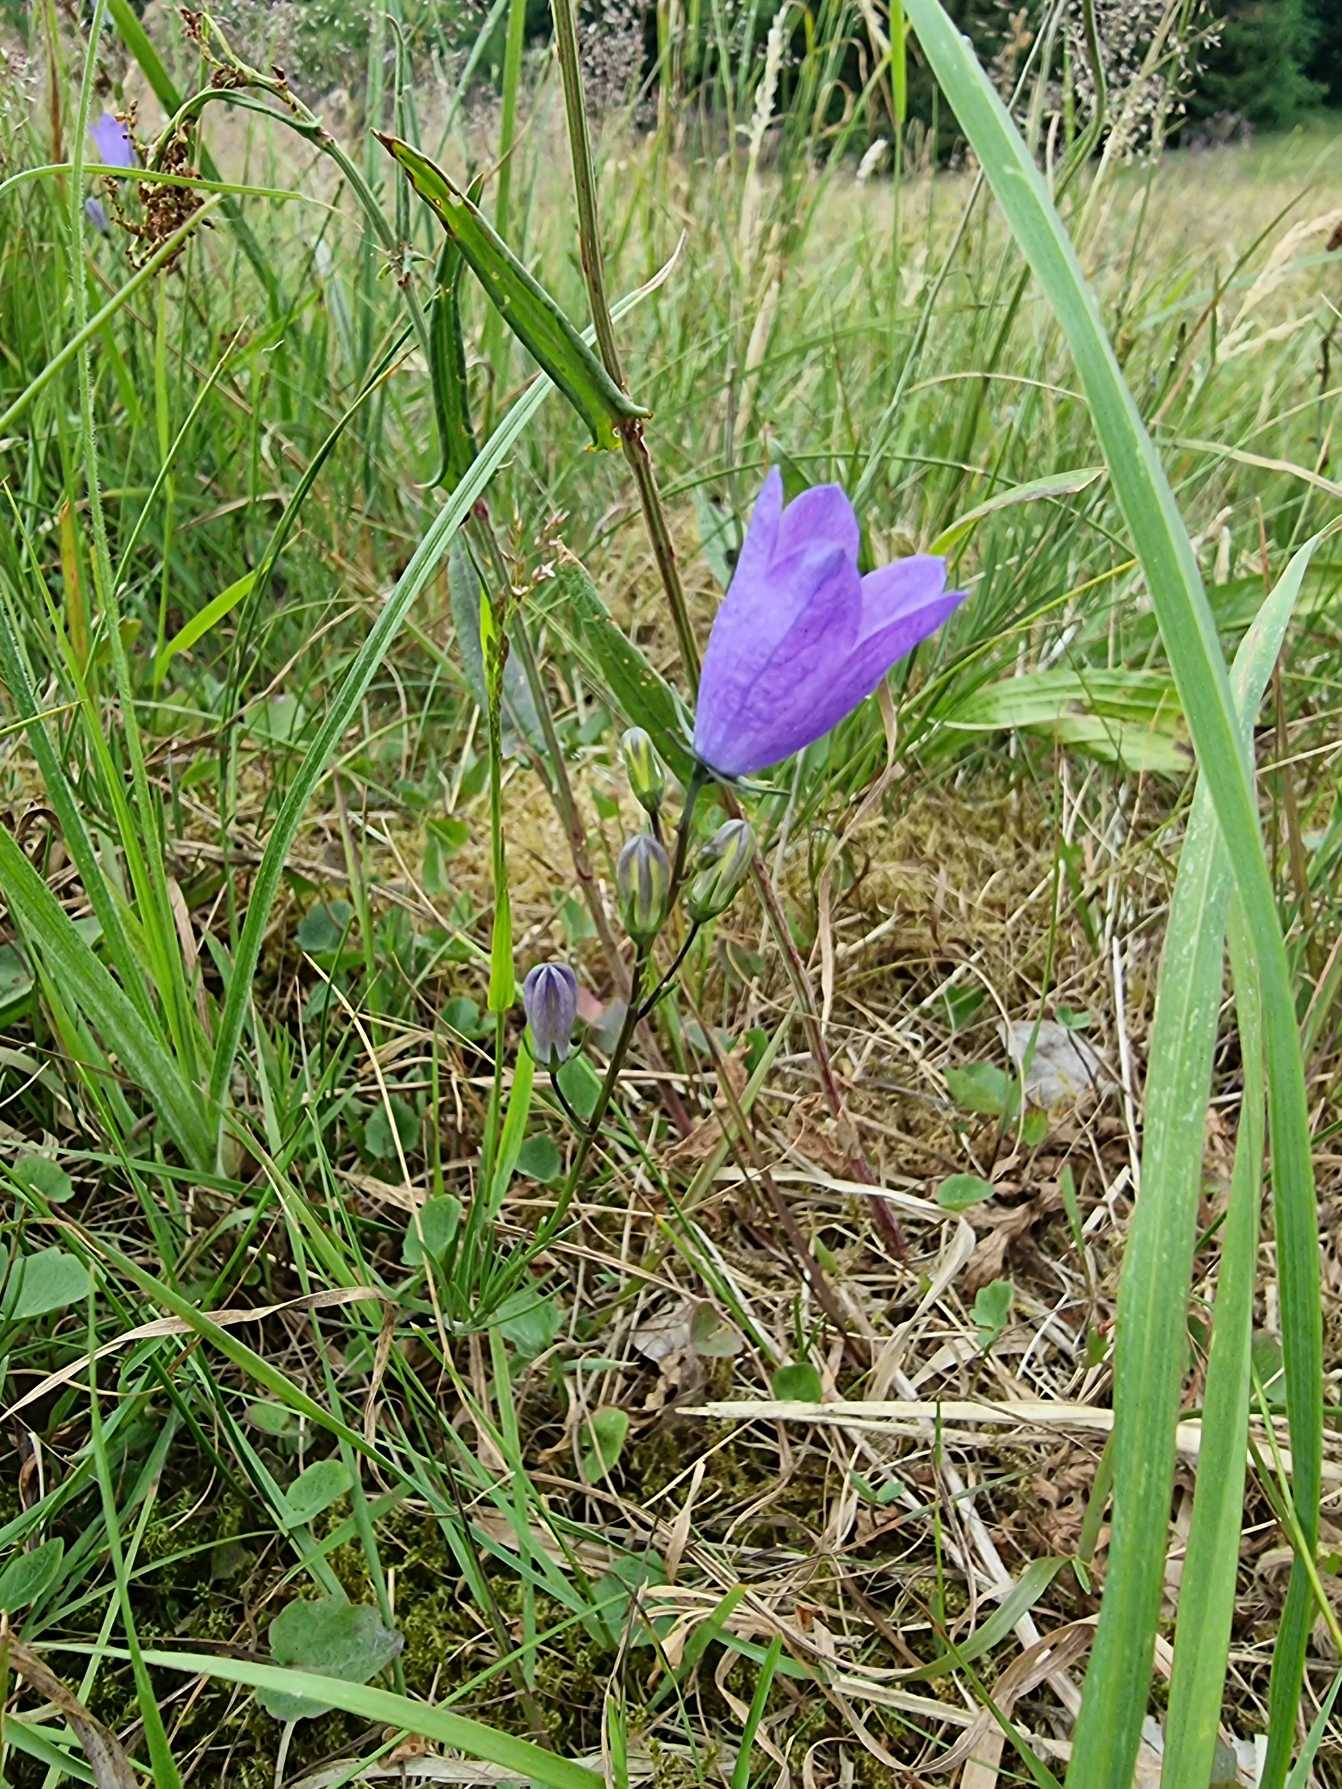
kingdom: Plantae
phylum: Tracheophyta
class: Magnoliopsida
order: Asterales
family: Campanulaceae
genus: Campanula
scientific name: Campanula rotundifolia
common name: Liden klokke
